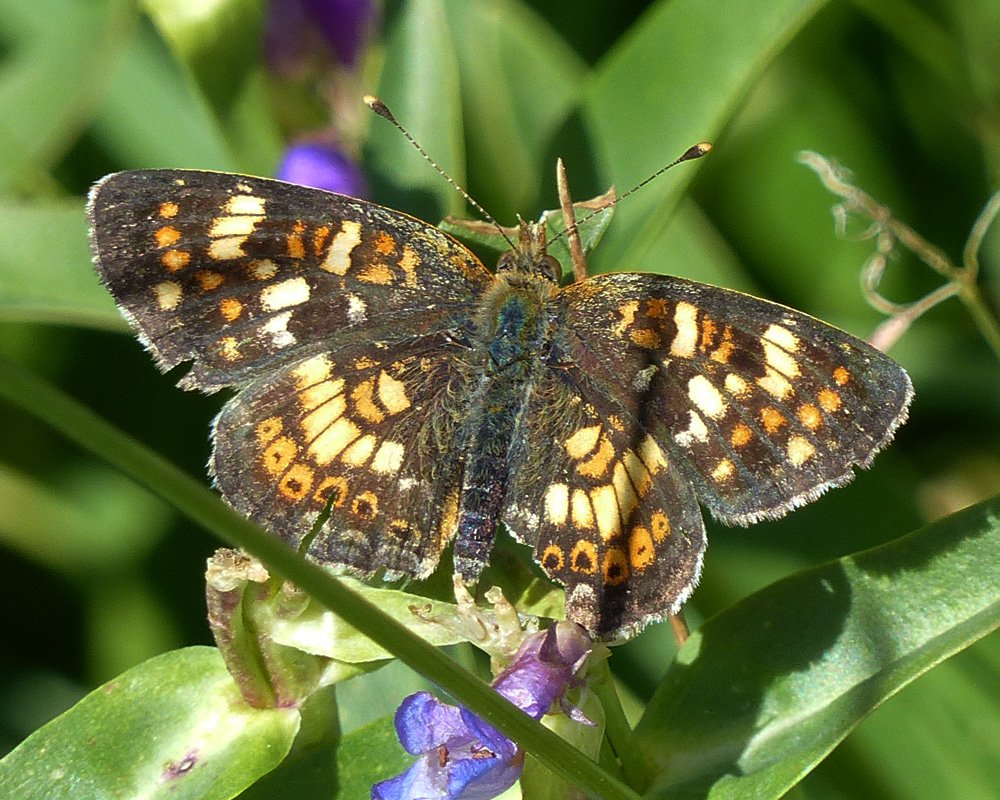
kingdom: Animalia
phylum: Arthropoda
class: Insecta
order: Lepidoptera
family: Nymphalidae
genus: Phyciodes
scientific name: Phyciodes tharos
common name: Field Crescent
